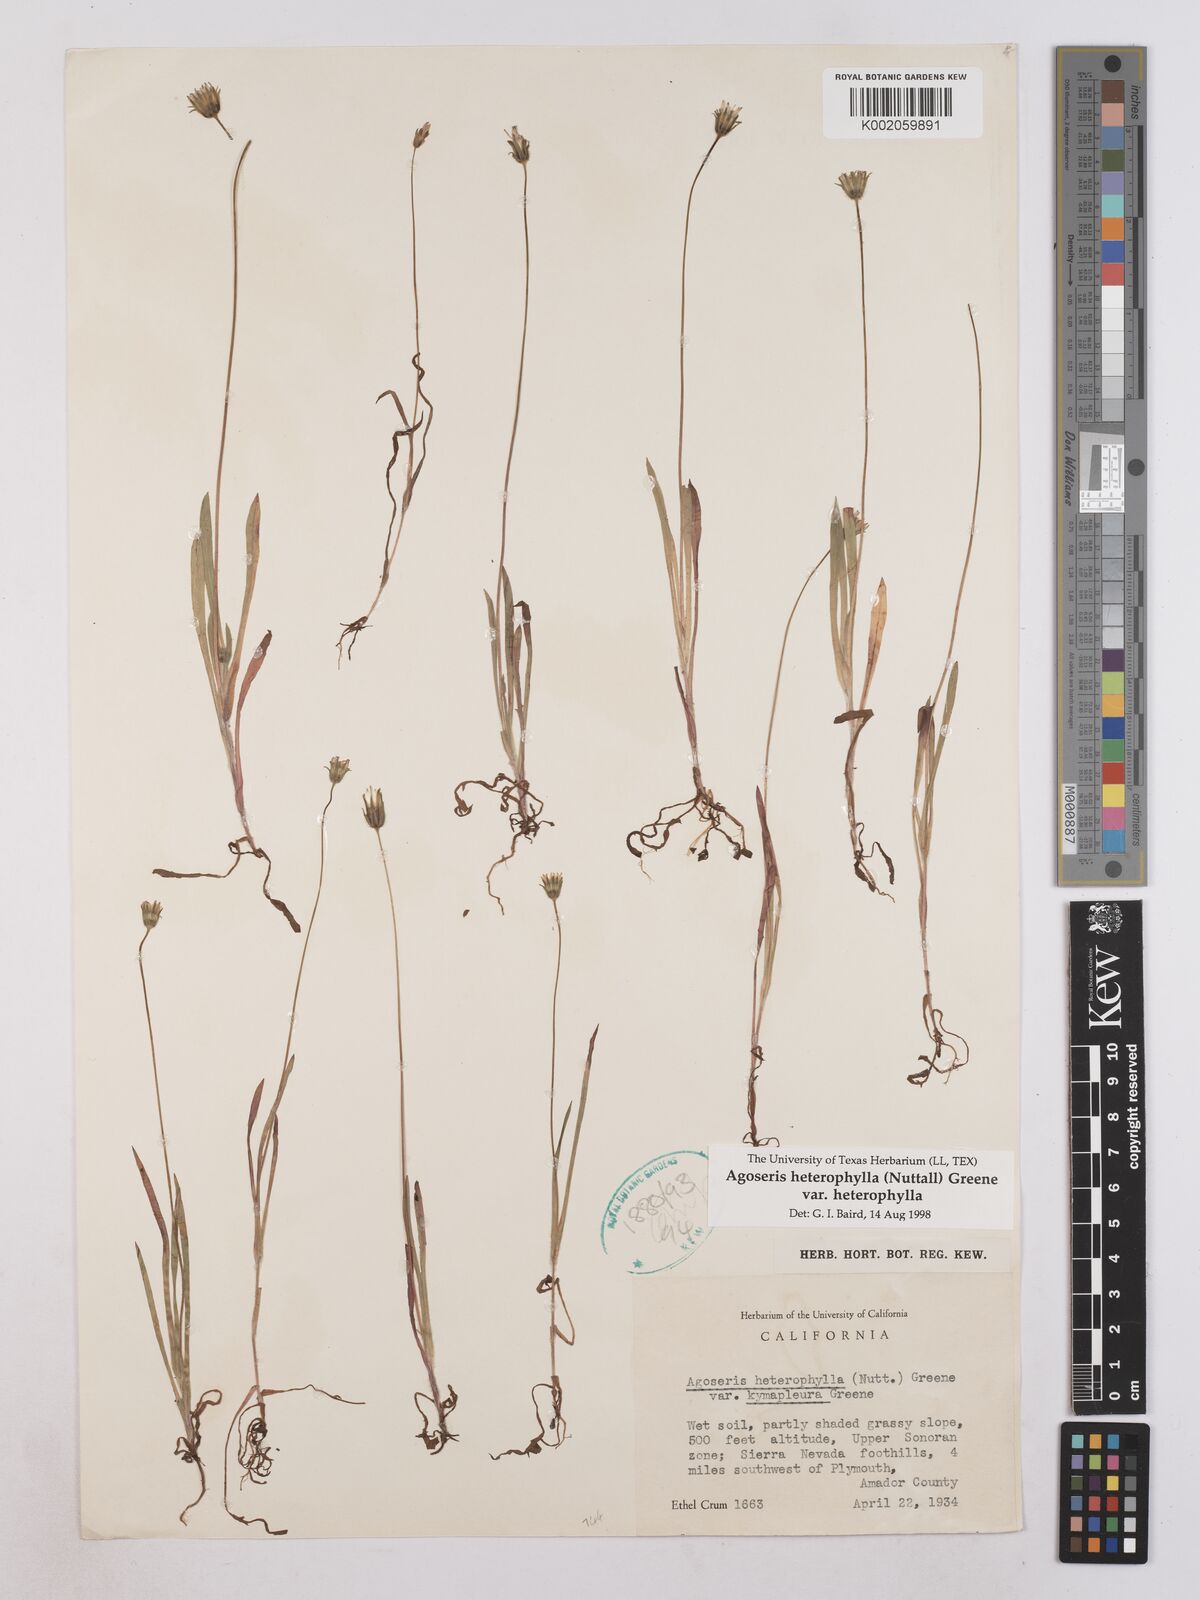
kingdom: Plantae
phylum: Tracheophyta
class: Magnoliopsida
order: Asterales
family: Asteraceae
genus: Agoseris
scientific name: Agoseris heterophylla
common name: Annual agoseris
